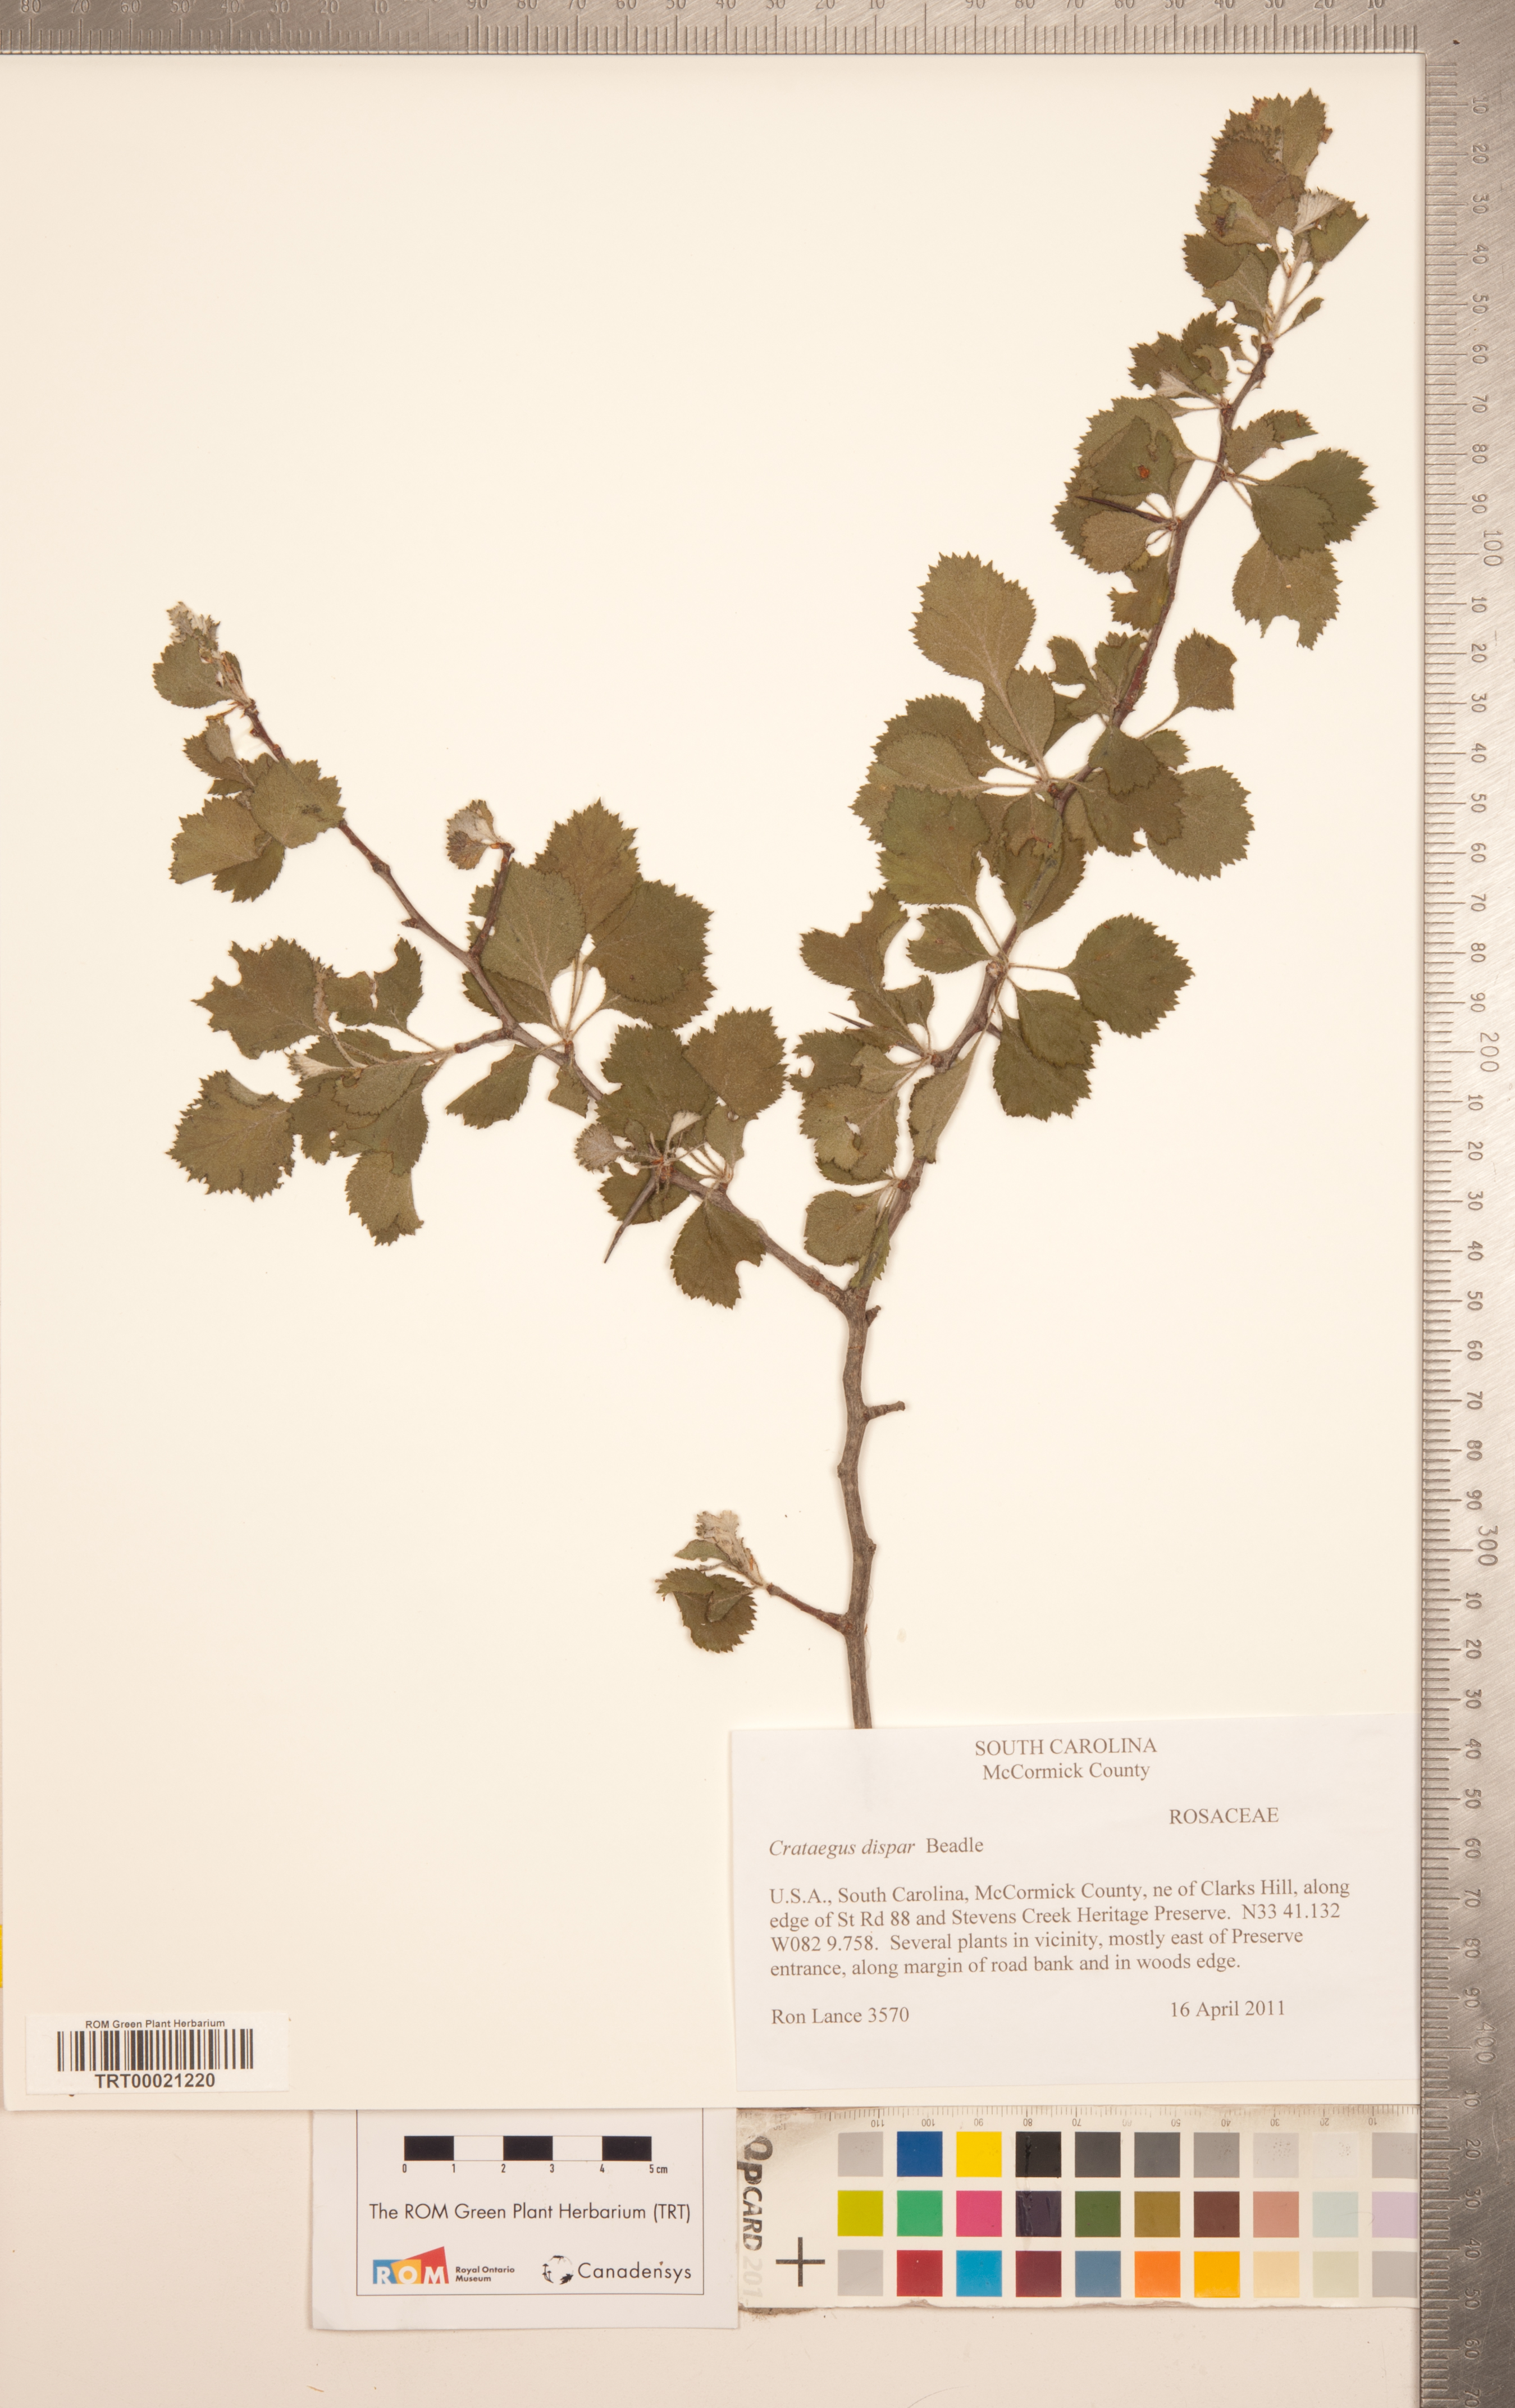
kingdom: Plantae
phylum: Tracheophyta
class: Magnoliopsida
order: Rosales
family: Rosaceae
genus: Crataegus
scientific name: Crataegus dispar
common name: Aiken hawthorn
